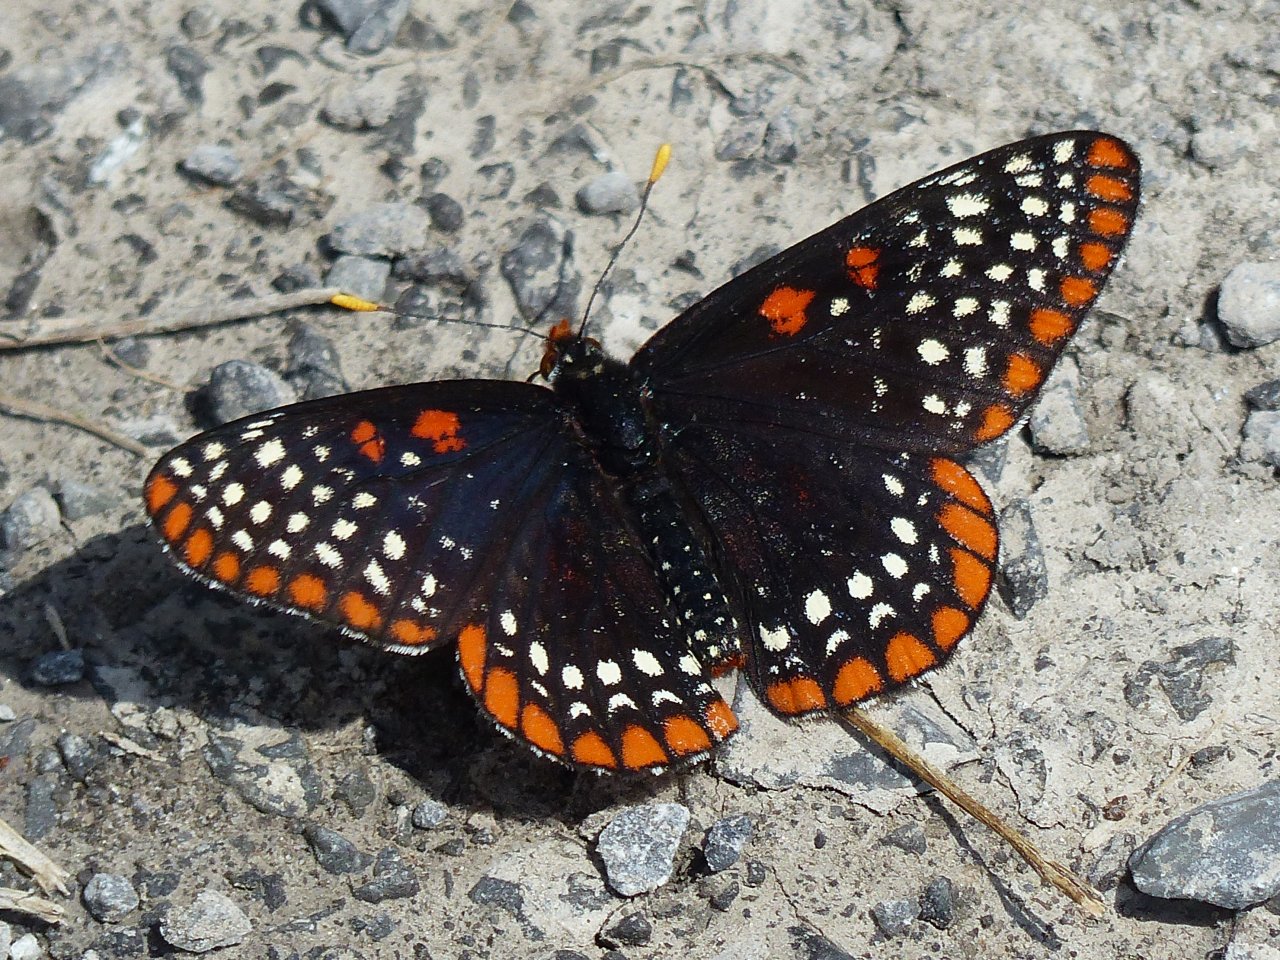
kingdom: Animalia
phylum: Arthropoda
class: Insecta
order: Lepidoptera
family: Nymphalidae
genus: Euphydryas
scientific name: Euphydryas phaeton
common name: Baltimore Checkerspot
